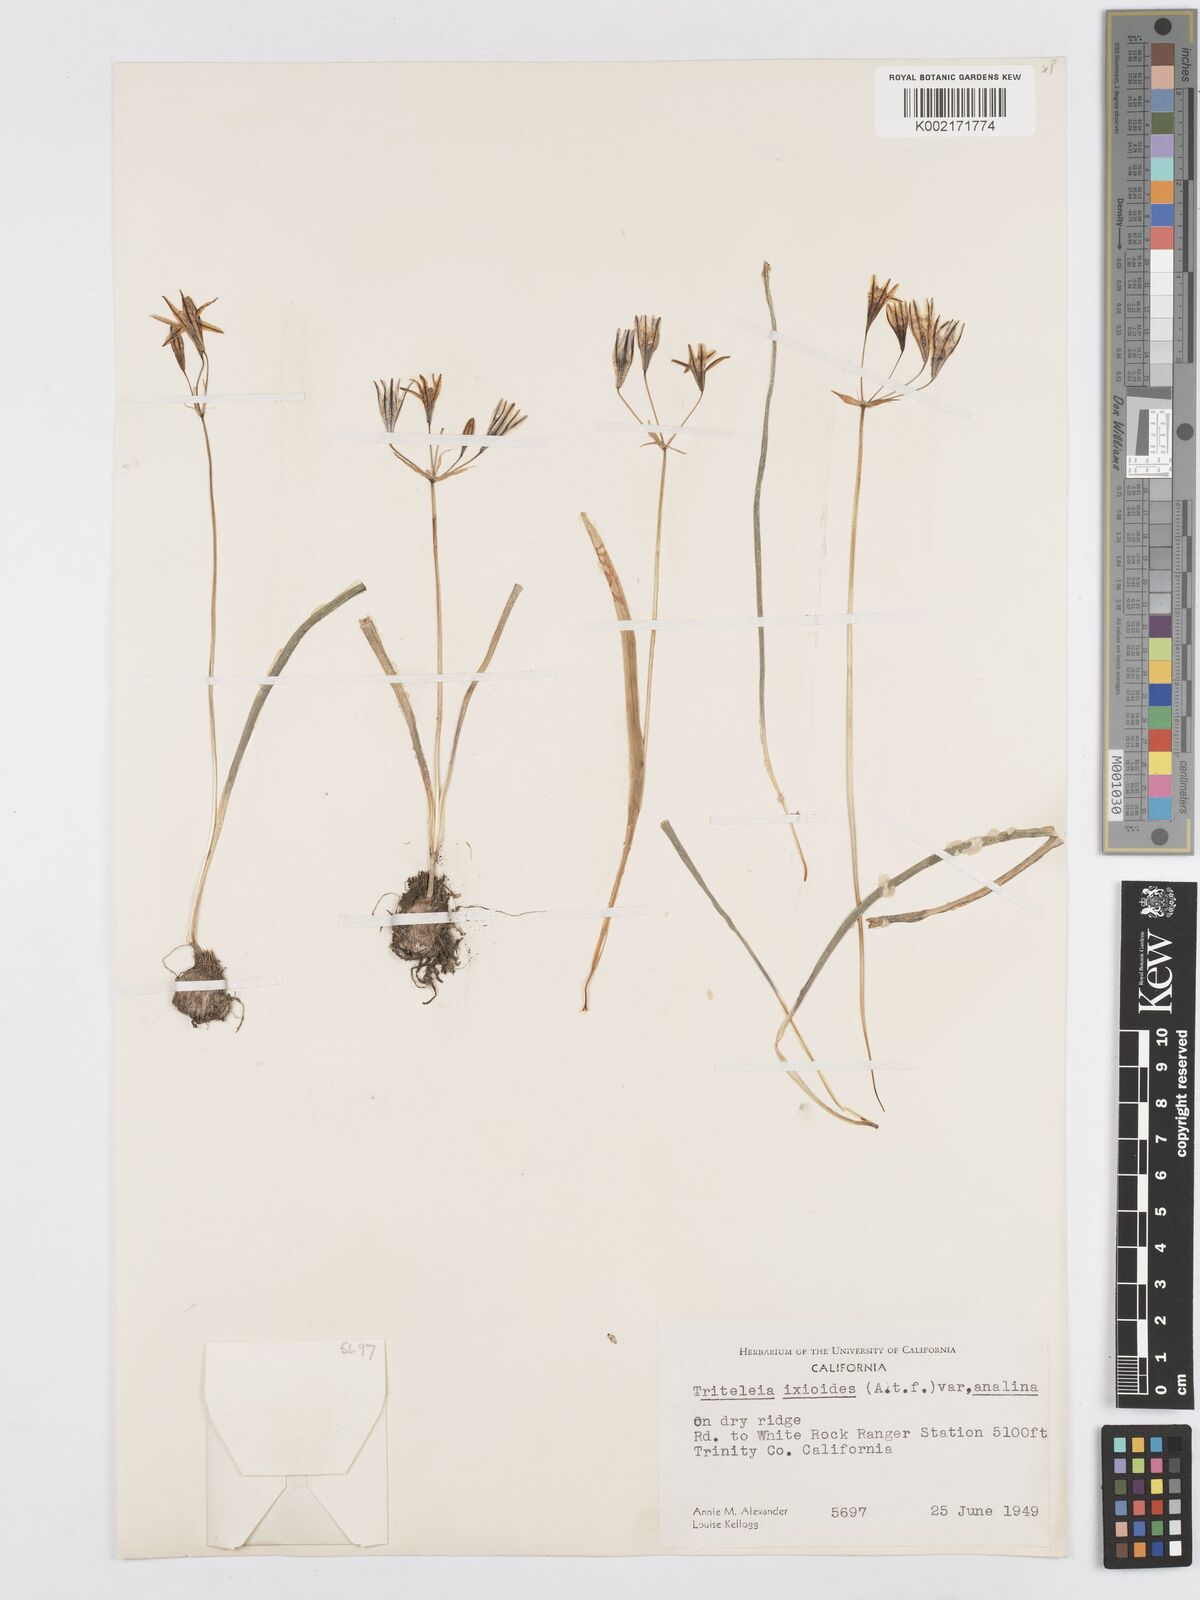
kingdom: Plantae
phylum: Tracheophyta
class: Liliopsida
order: Asparagales
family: Asparagaceae
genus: Triteleia
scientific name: Triteleia ixioides
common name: Yellow-brodiaea
